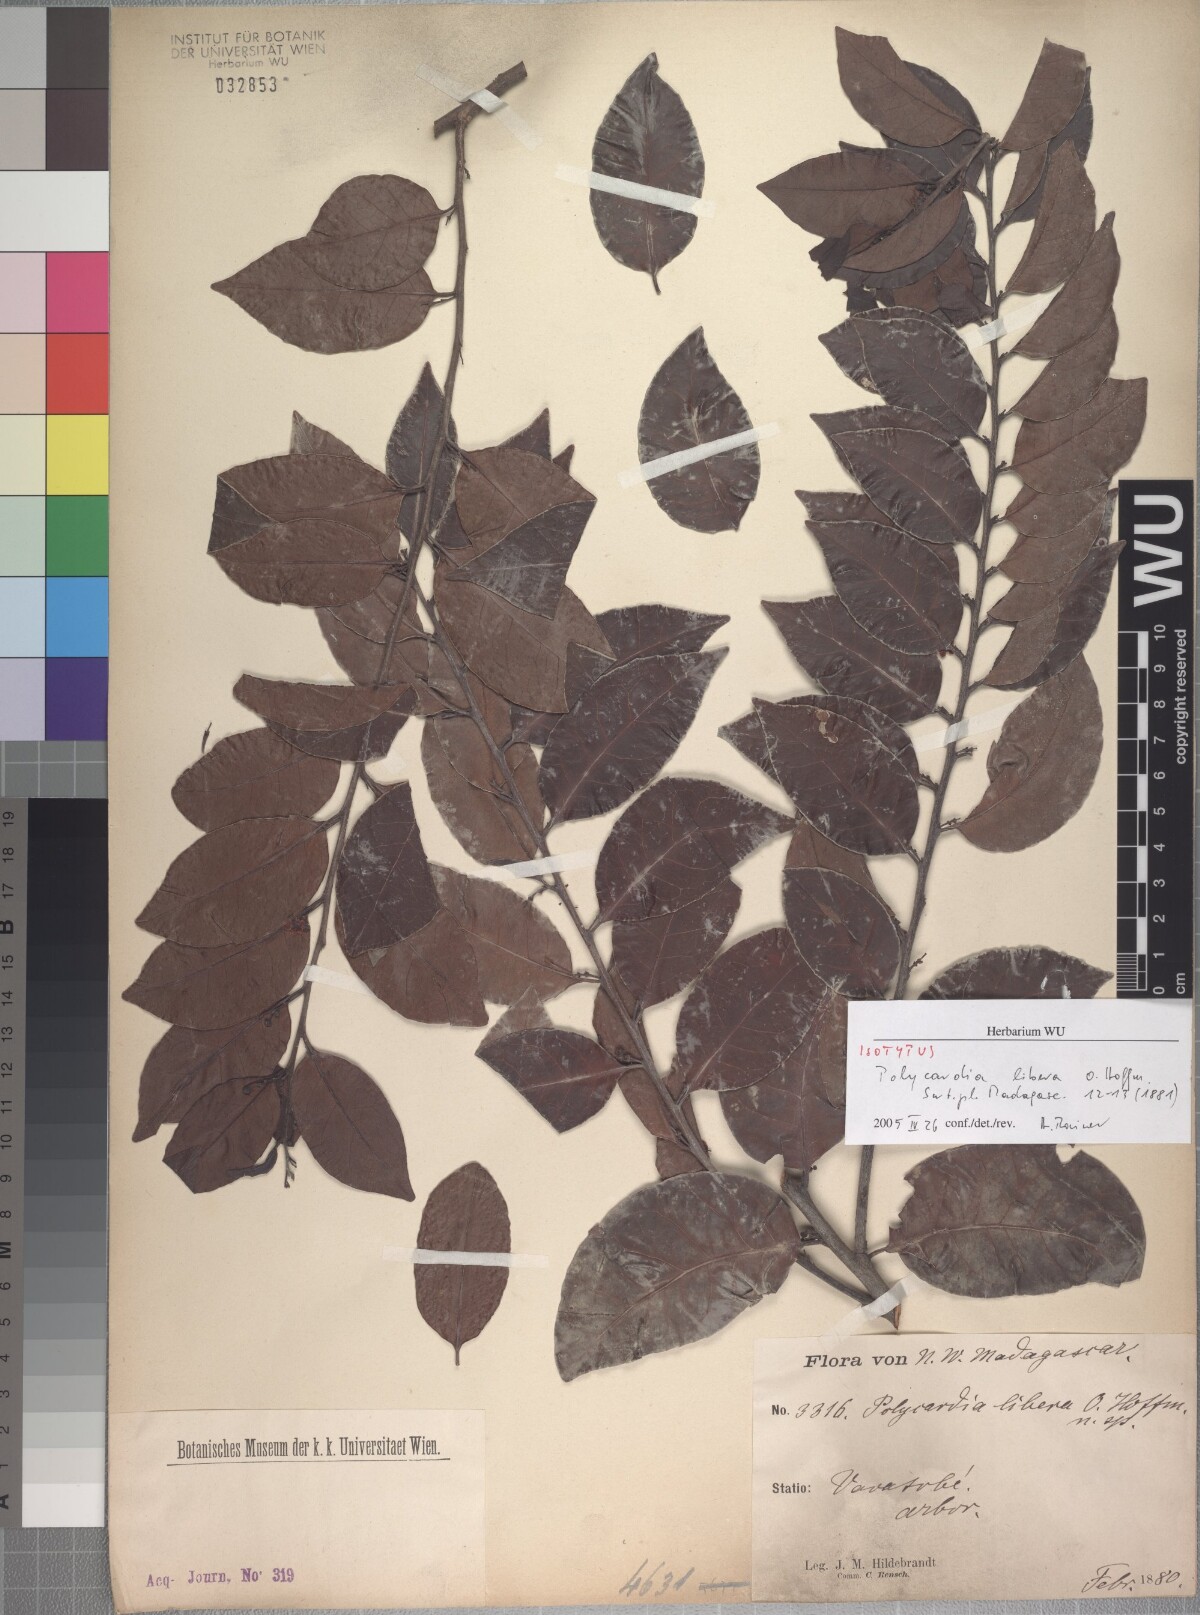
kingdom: Plantae
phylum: Tracheophyta
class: Magnoliopsida
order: Celastrales
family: Celastraceae
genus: Polycardia
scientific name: Polycardia libera
